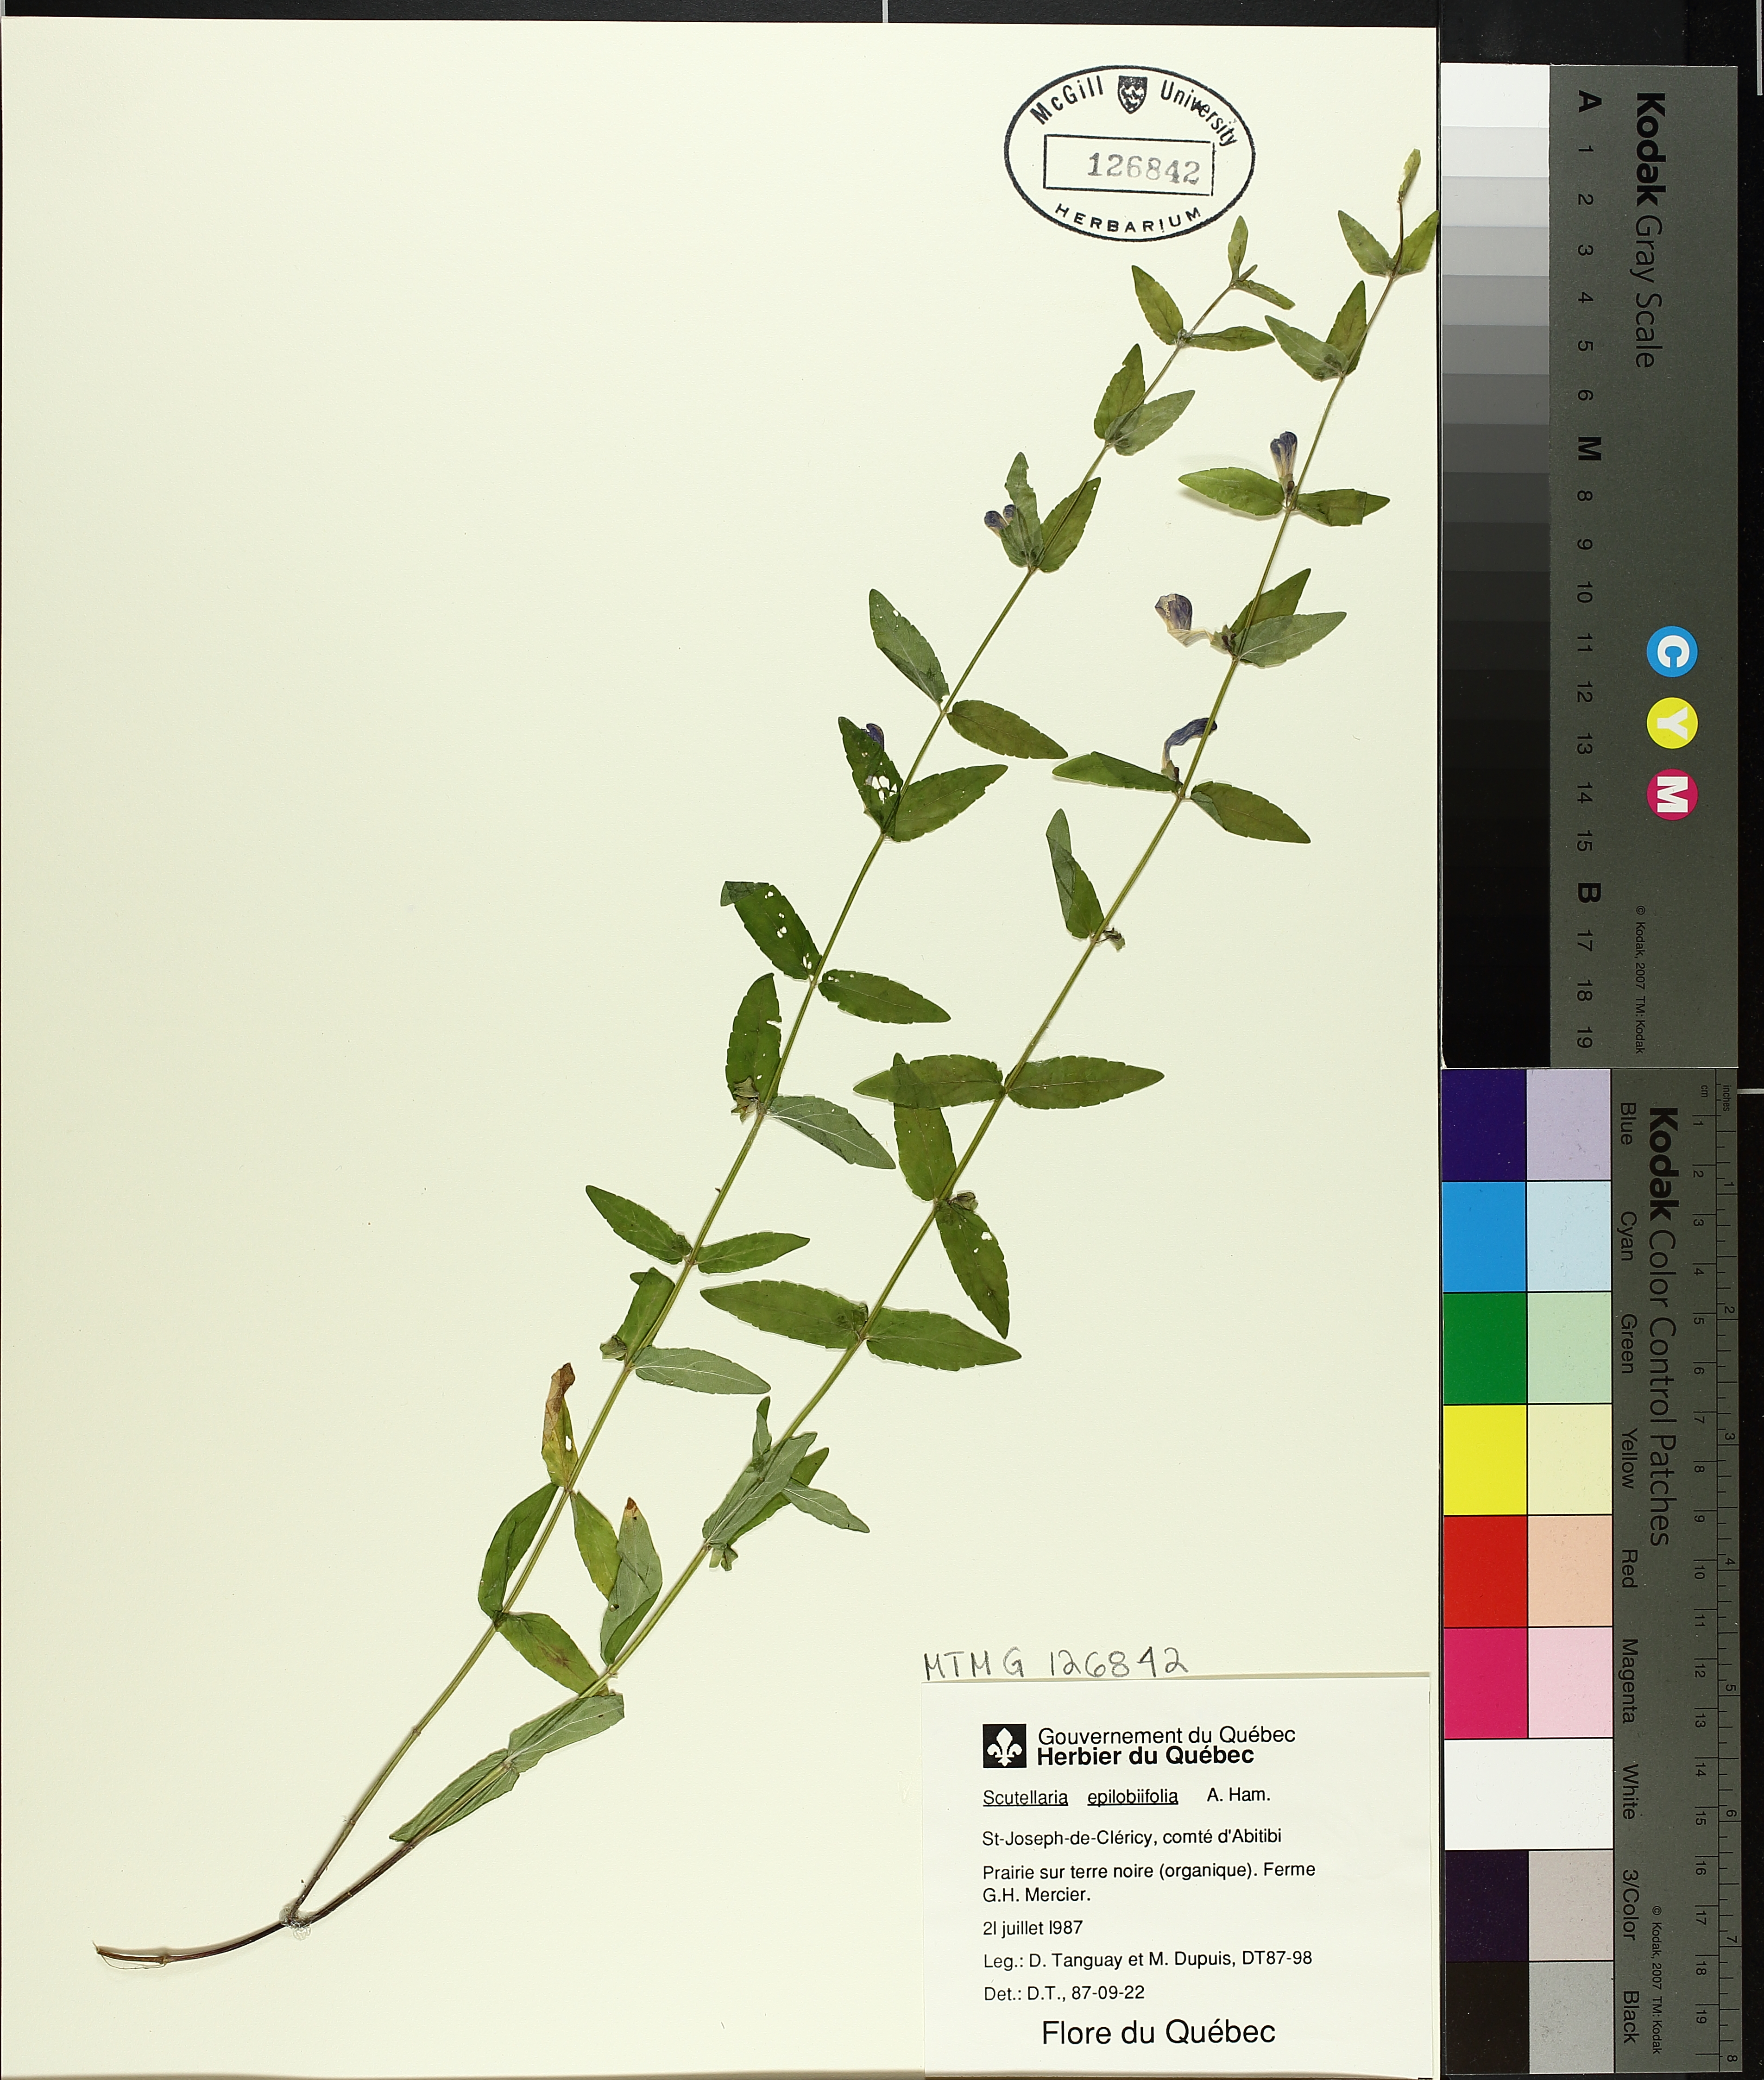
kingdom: Plantae
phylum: Tracheophyta
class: Magnoliopsida
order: Lamiales
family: Lamiaceae
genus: Scutellaria
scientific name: Scutellaria galericulata
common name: Skullcap
